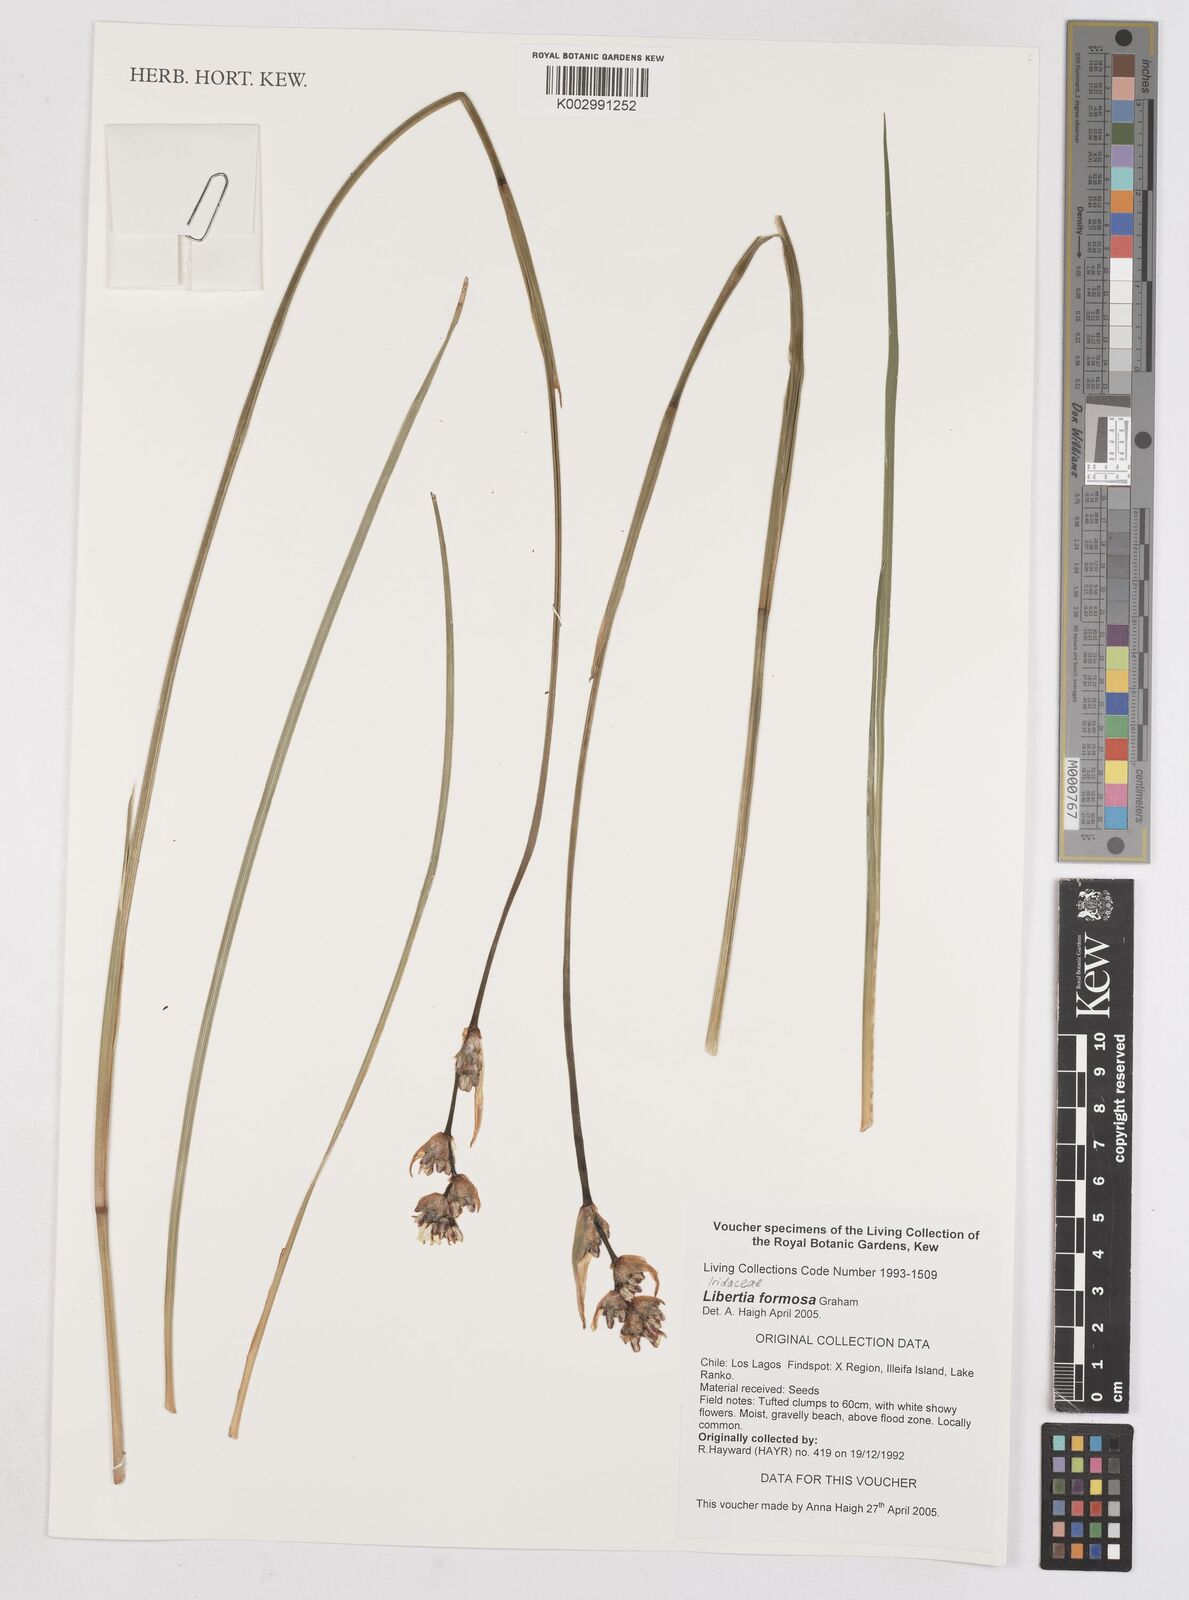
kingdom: Plantae
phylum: Tracheophyta
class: Liliopsida
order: Asparagales
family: Iridaceae
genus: Libertia
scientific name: Libertia chilensis
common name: Satin flower
